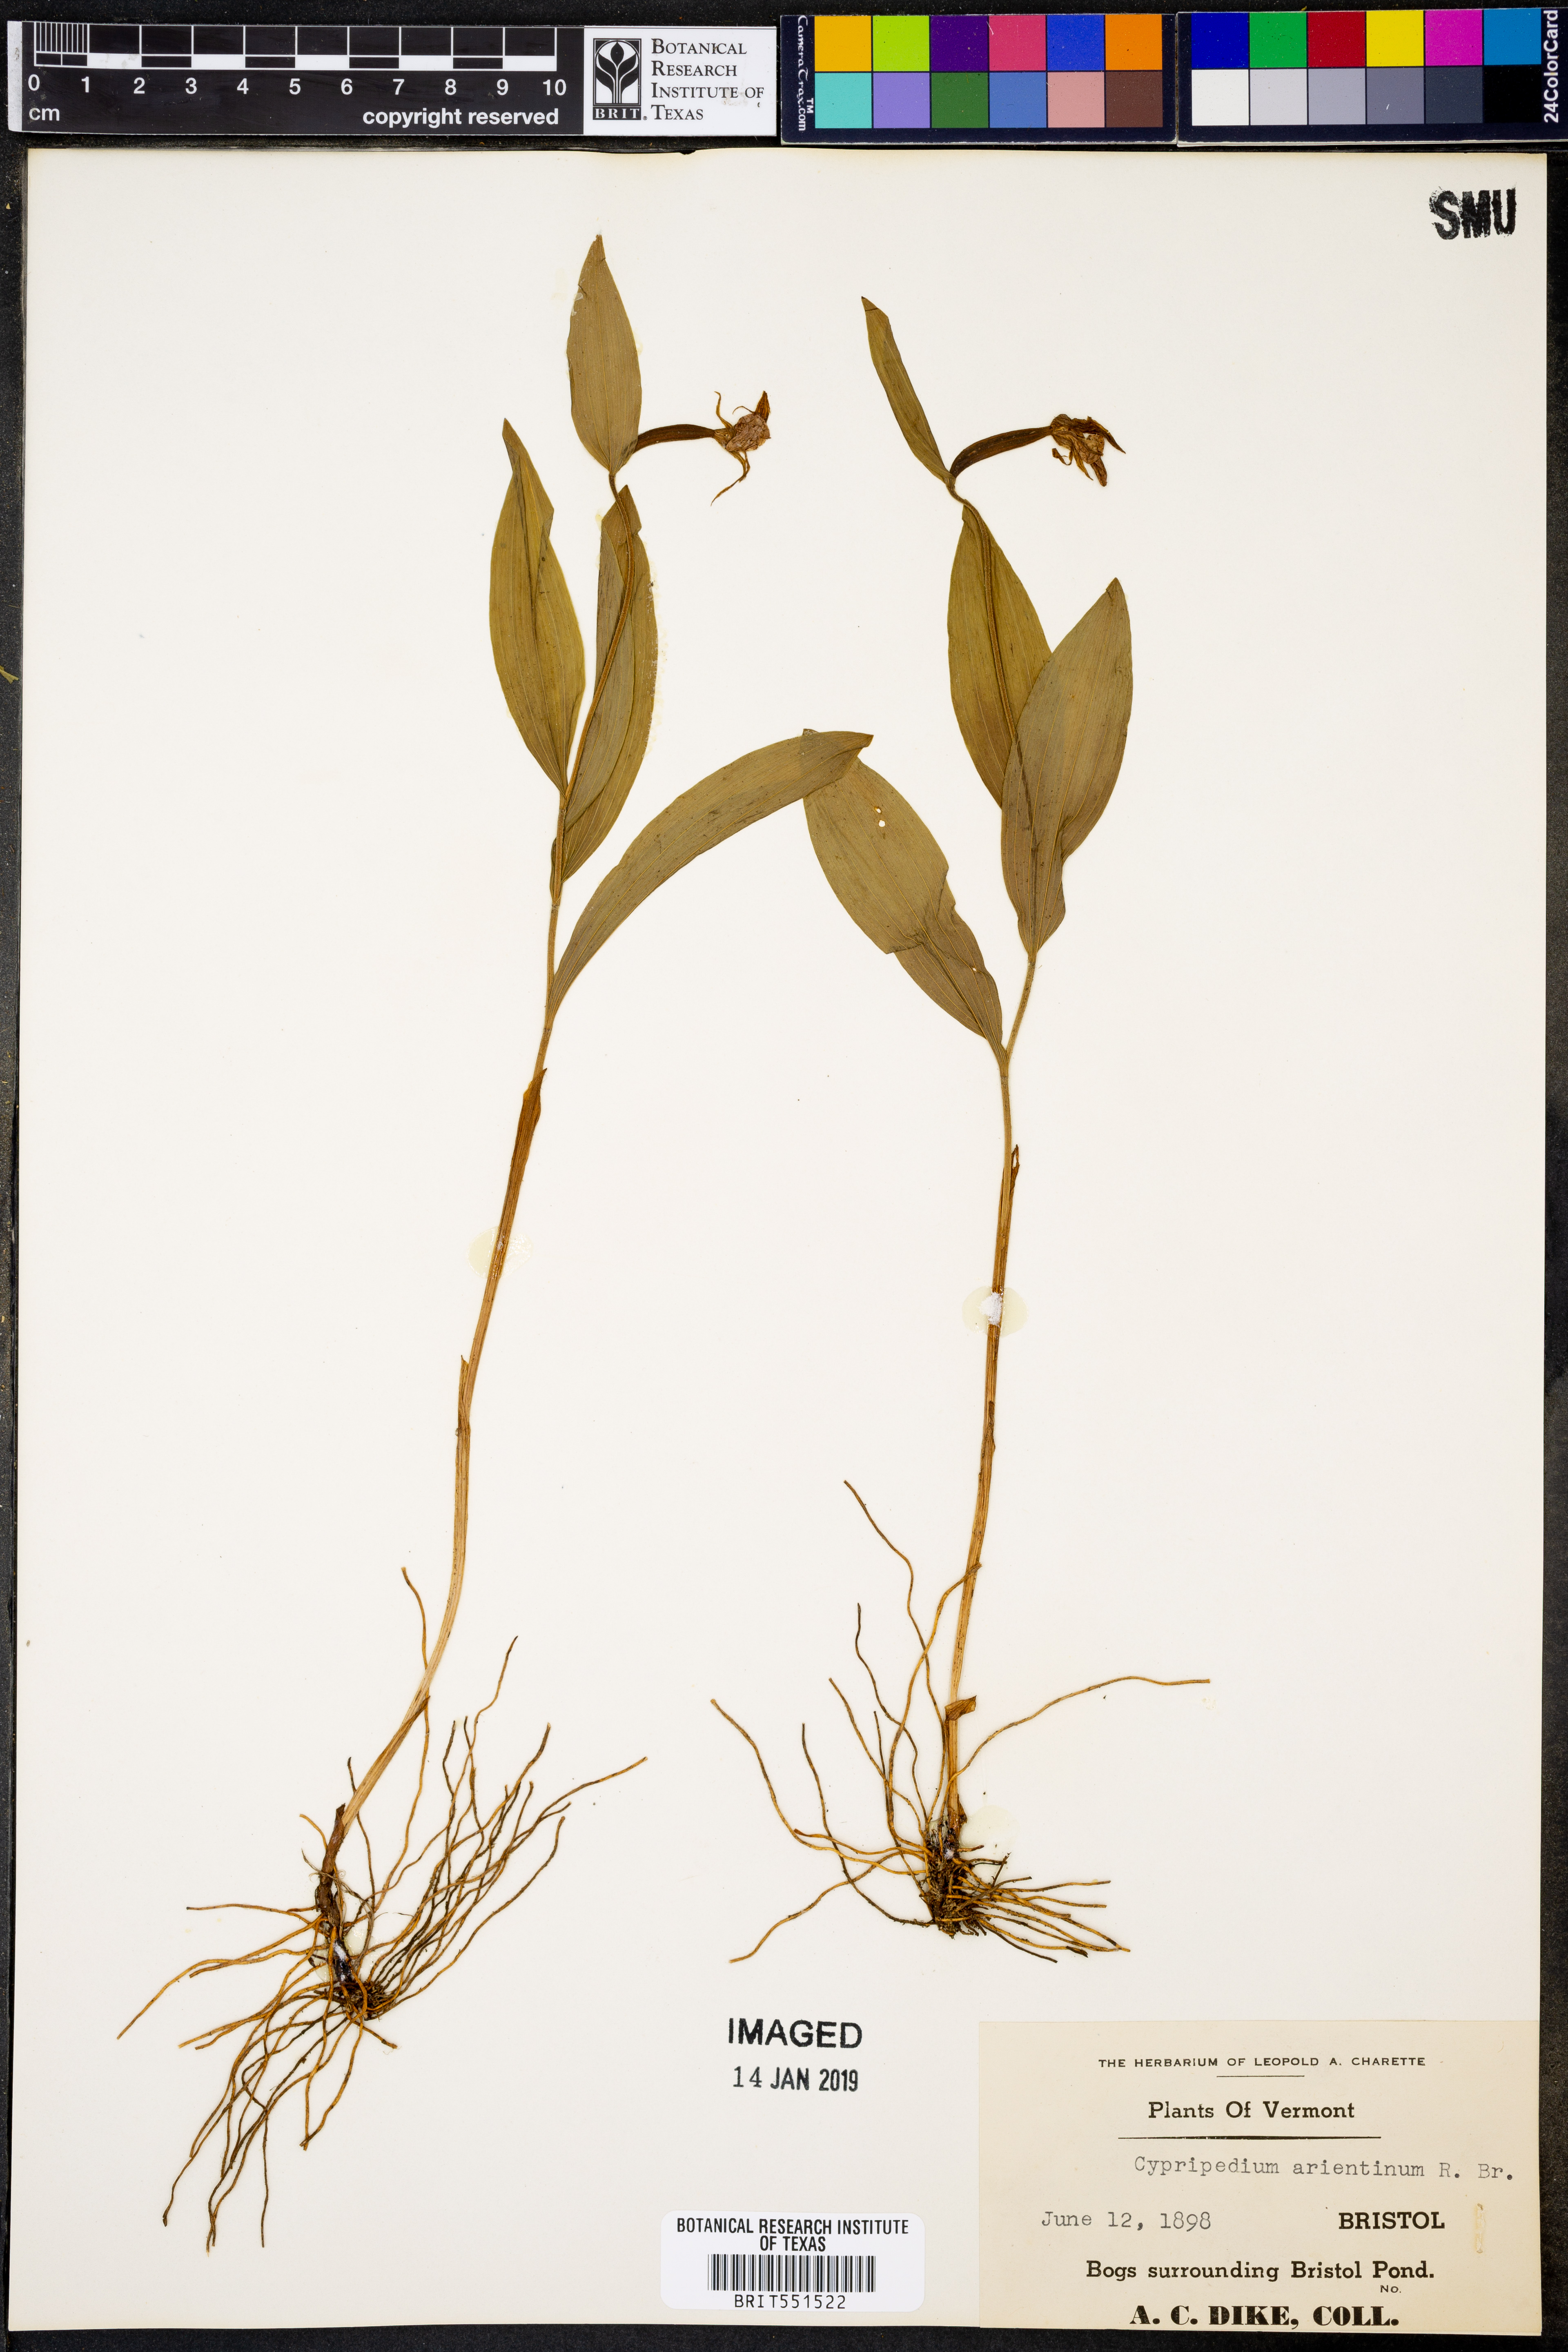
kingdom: Plantae
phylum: Tracheophyta
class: Liliopsida
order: Asparagales
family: Orchidaceae
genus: Cypripedium
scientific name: Cypripedium arietinum
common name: Ram's-head
